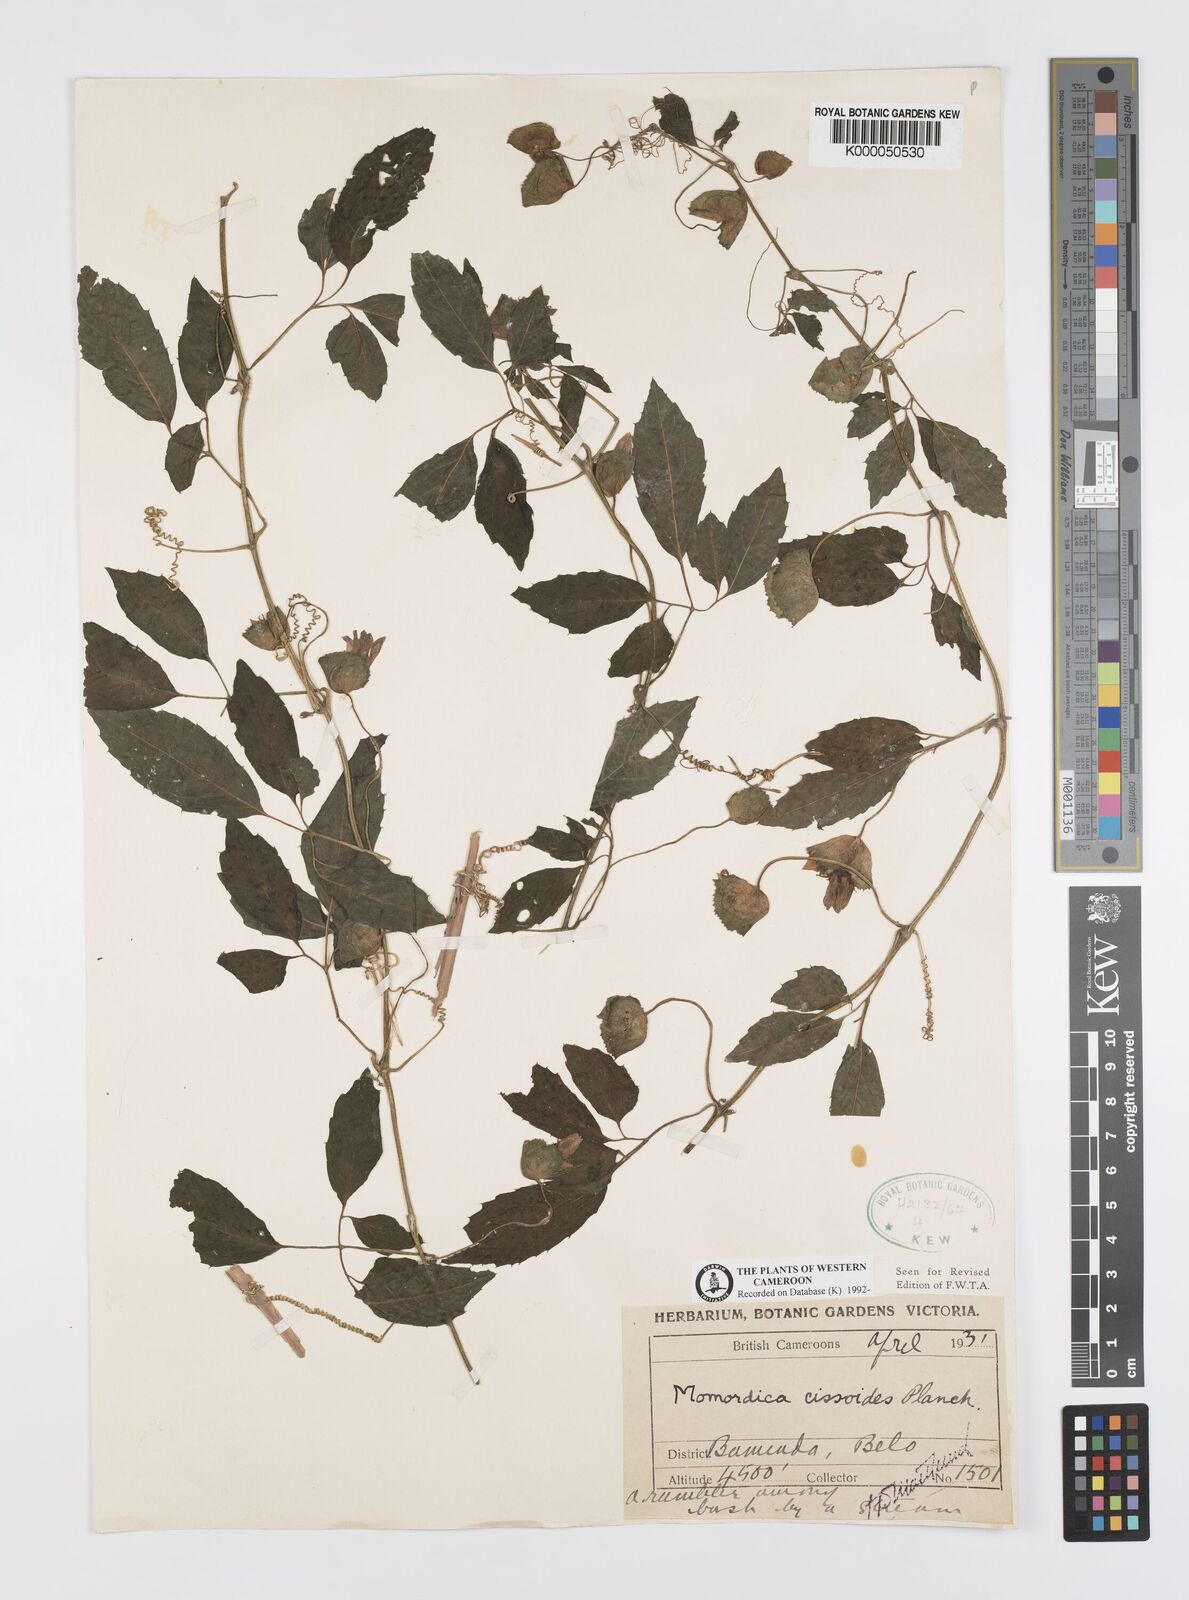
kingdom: Plantae
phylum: Tracheophyta
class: Magnoliopsida
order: Cucurbitales
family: Cucurbitaceae
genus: Momordica
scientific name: Momordica cissoides
